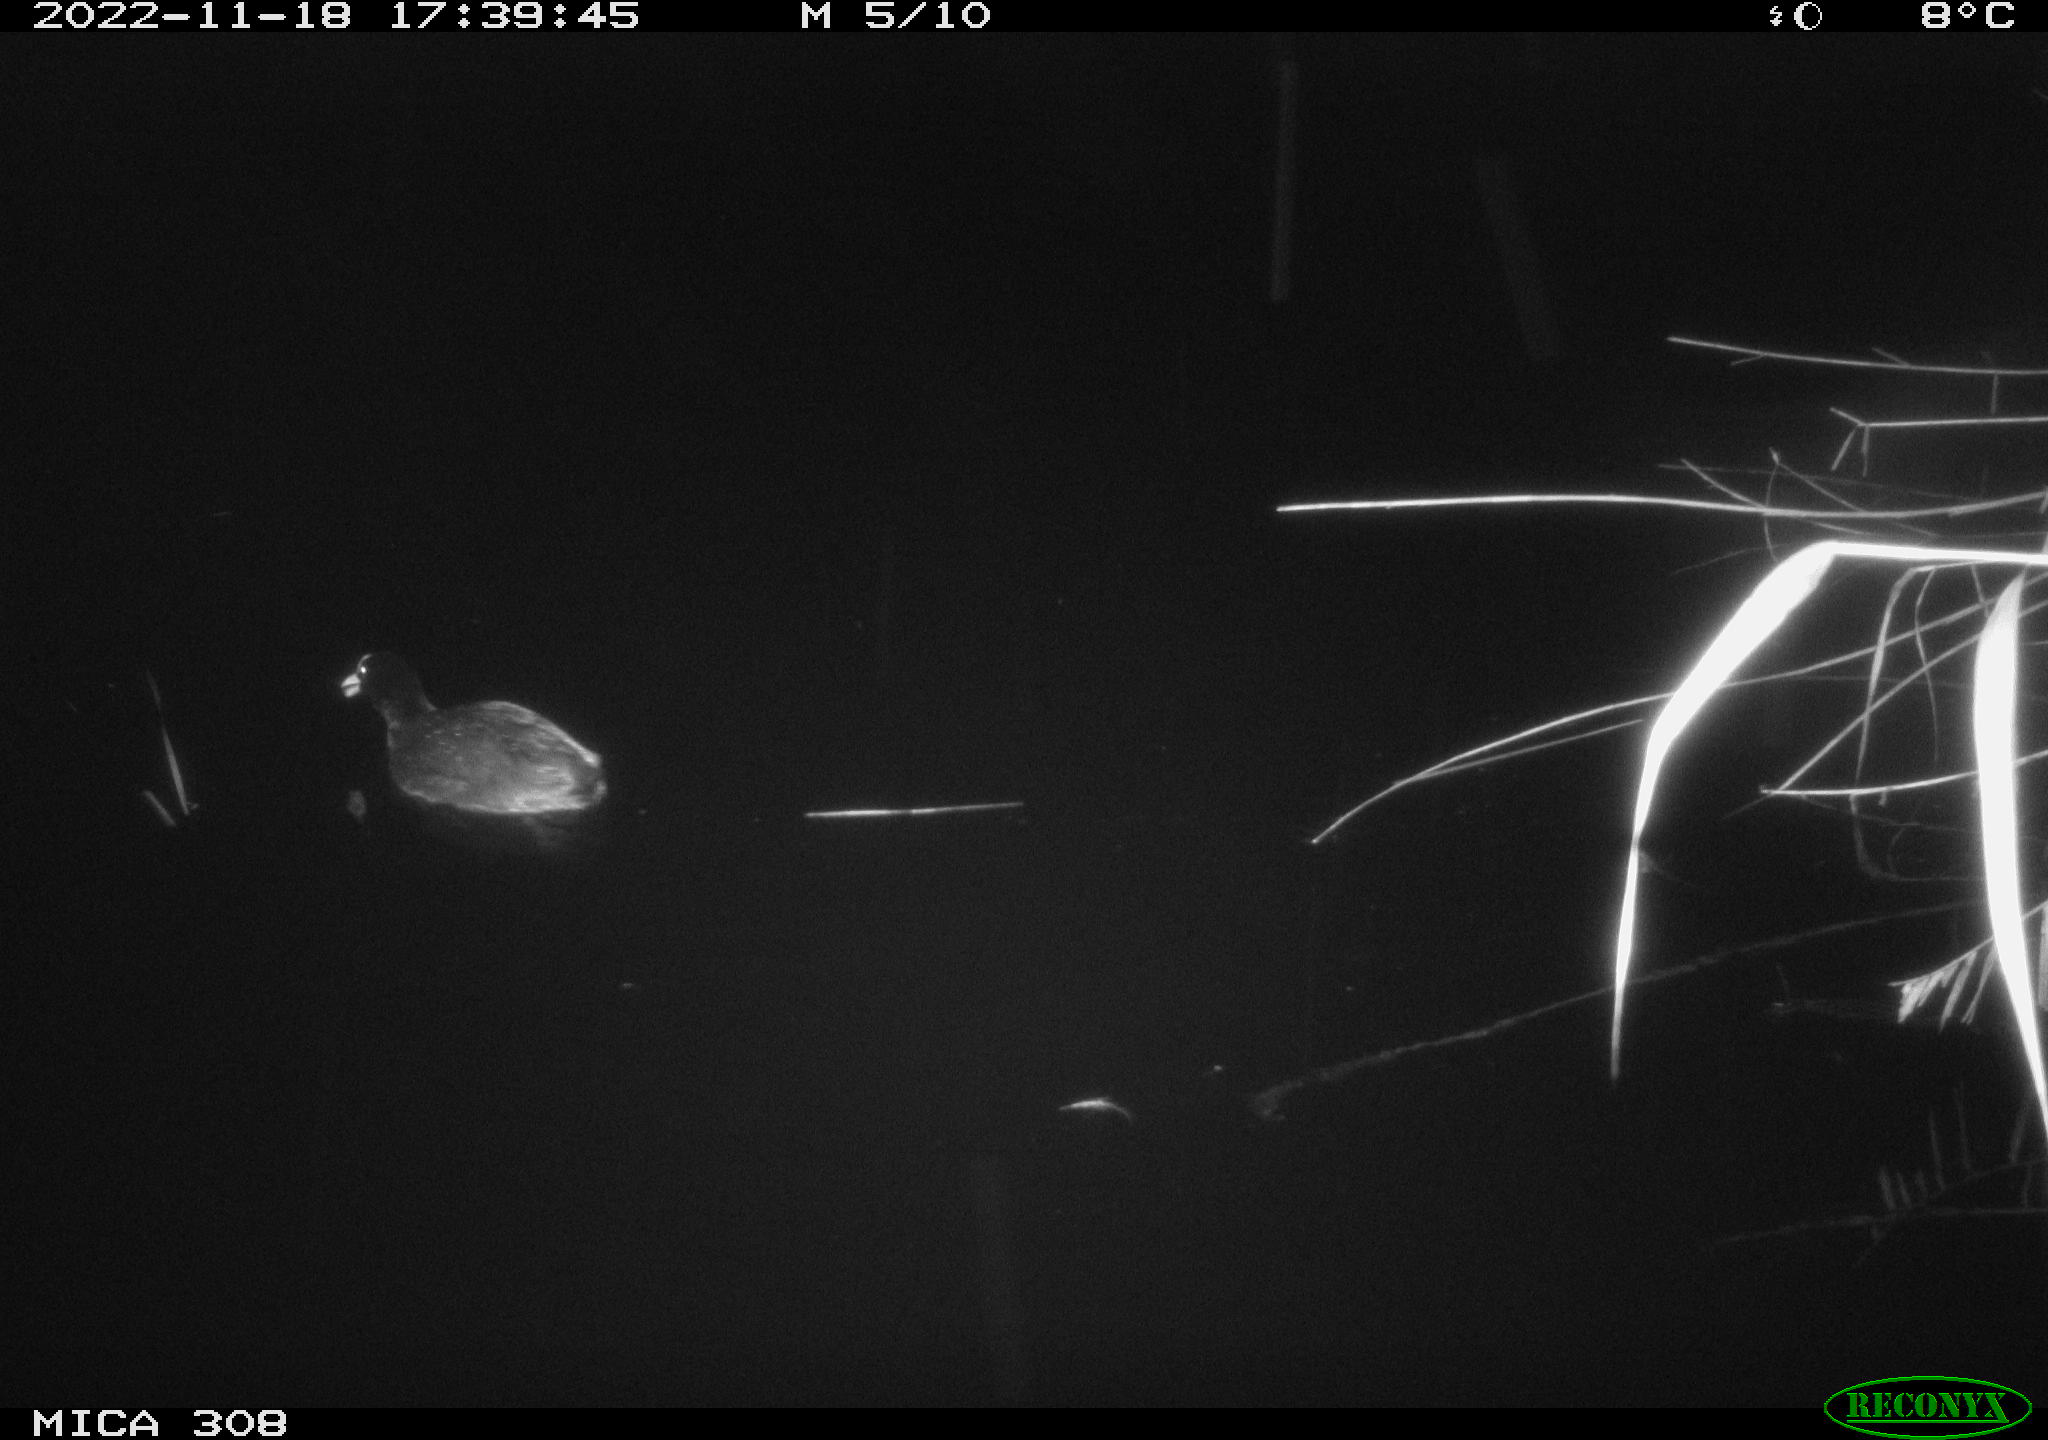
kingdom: Animalia
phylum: Chordata
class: Aves
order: Anseriformes
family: Anatidae
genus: Anas
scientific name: Anas
